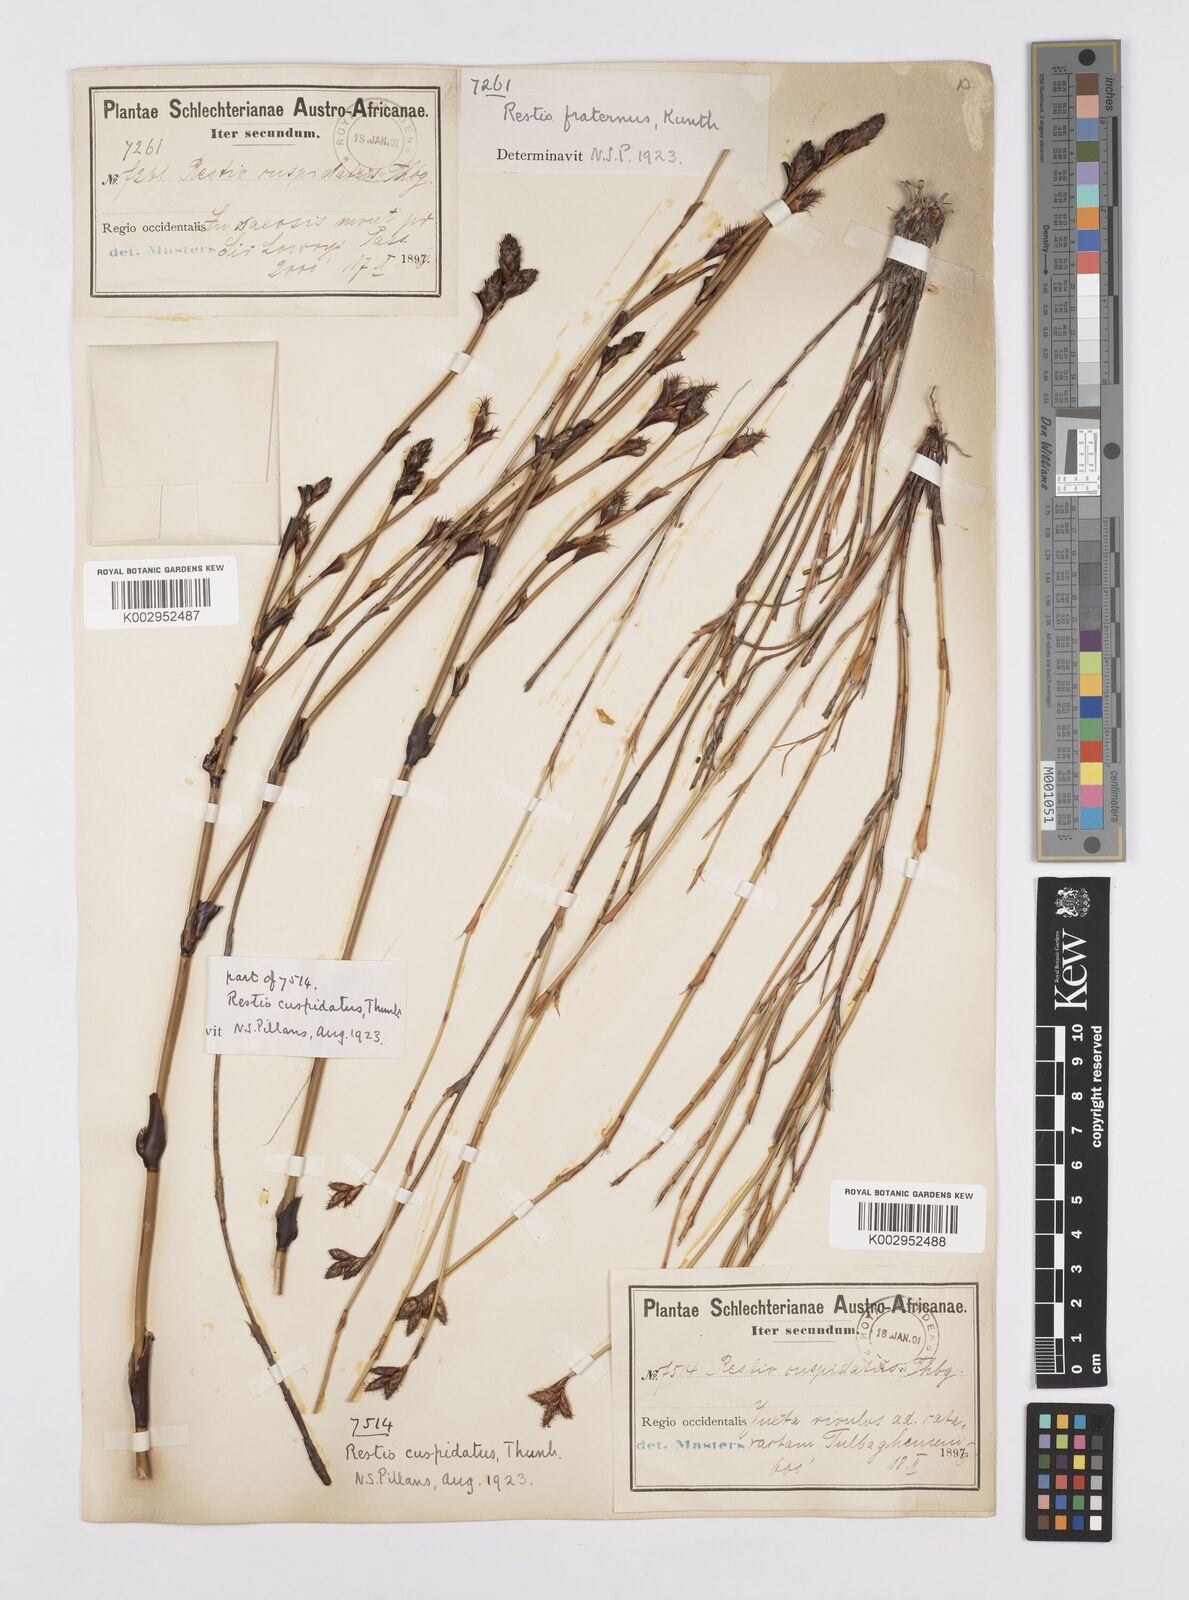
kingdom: Plantae
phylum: Tracheophyta
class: Liliopsida
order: Poales
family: Restionaceae
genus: Restio
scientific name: Restio fraternus
